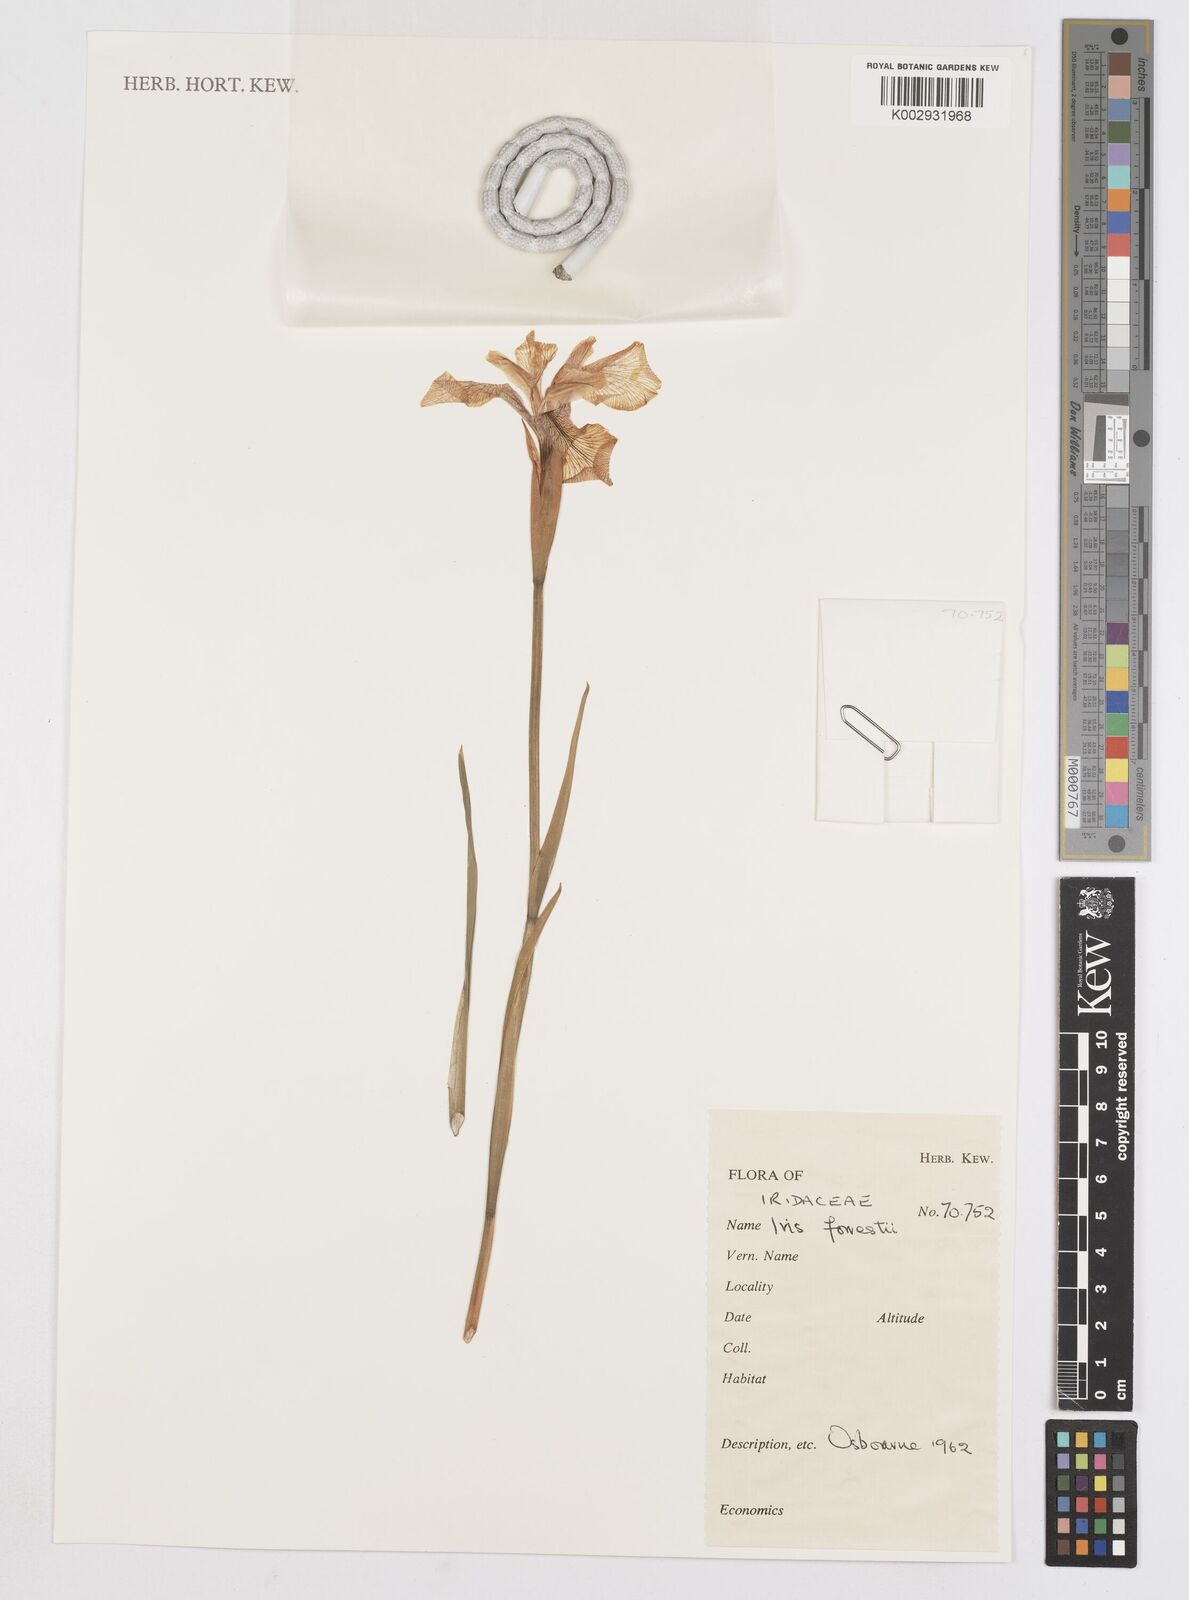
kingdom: Plantae
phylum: Tracheophyta
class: Liliopsida
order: Asparagales
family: Iridaceae
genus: Iris
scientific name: Iris forrestii
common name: Yunnan iris
